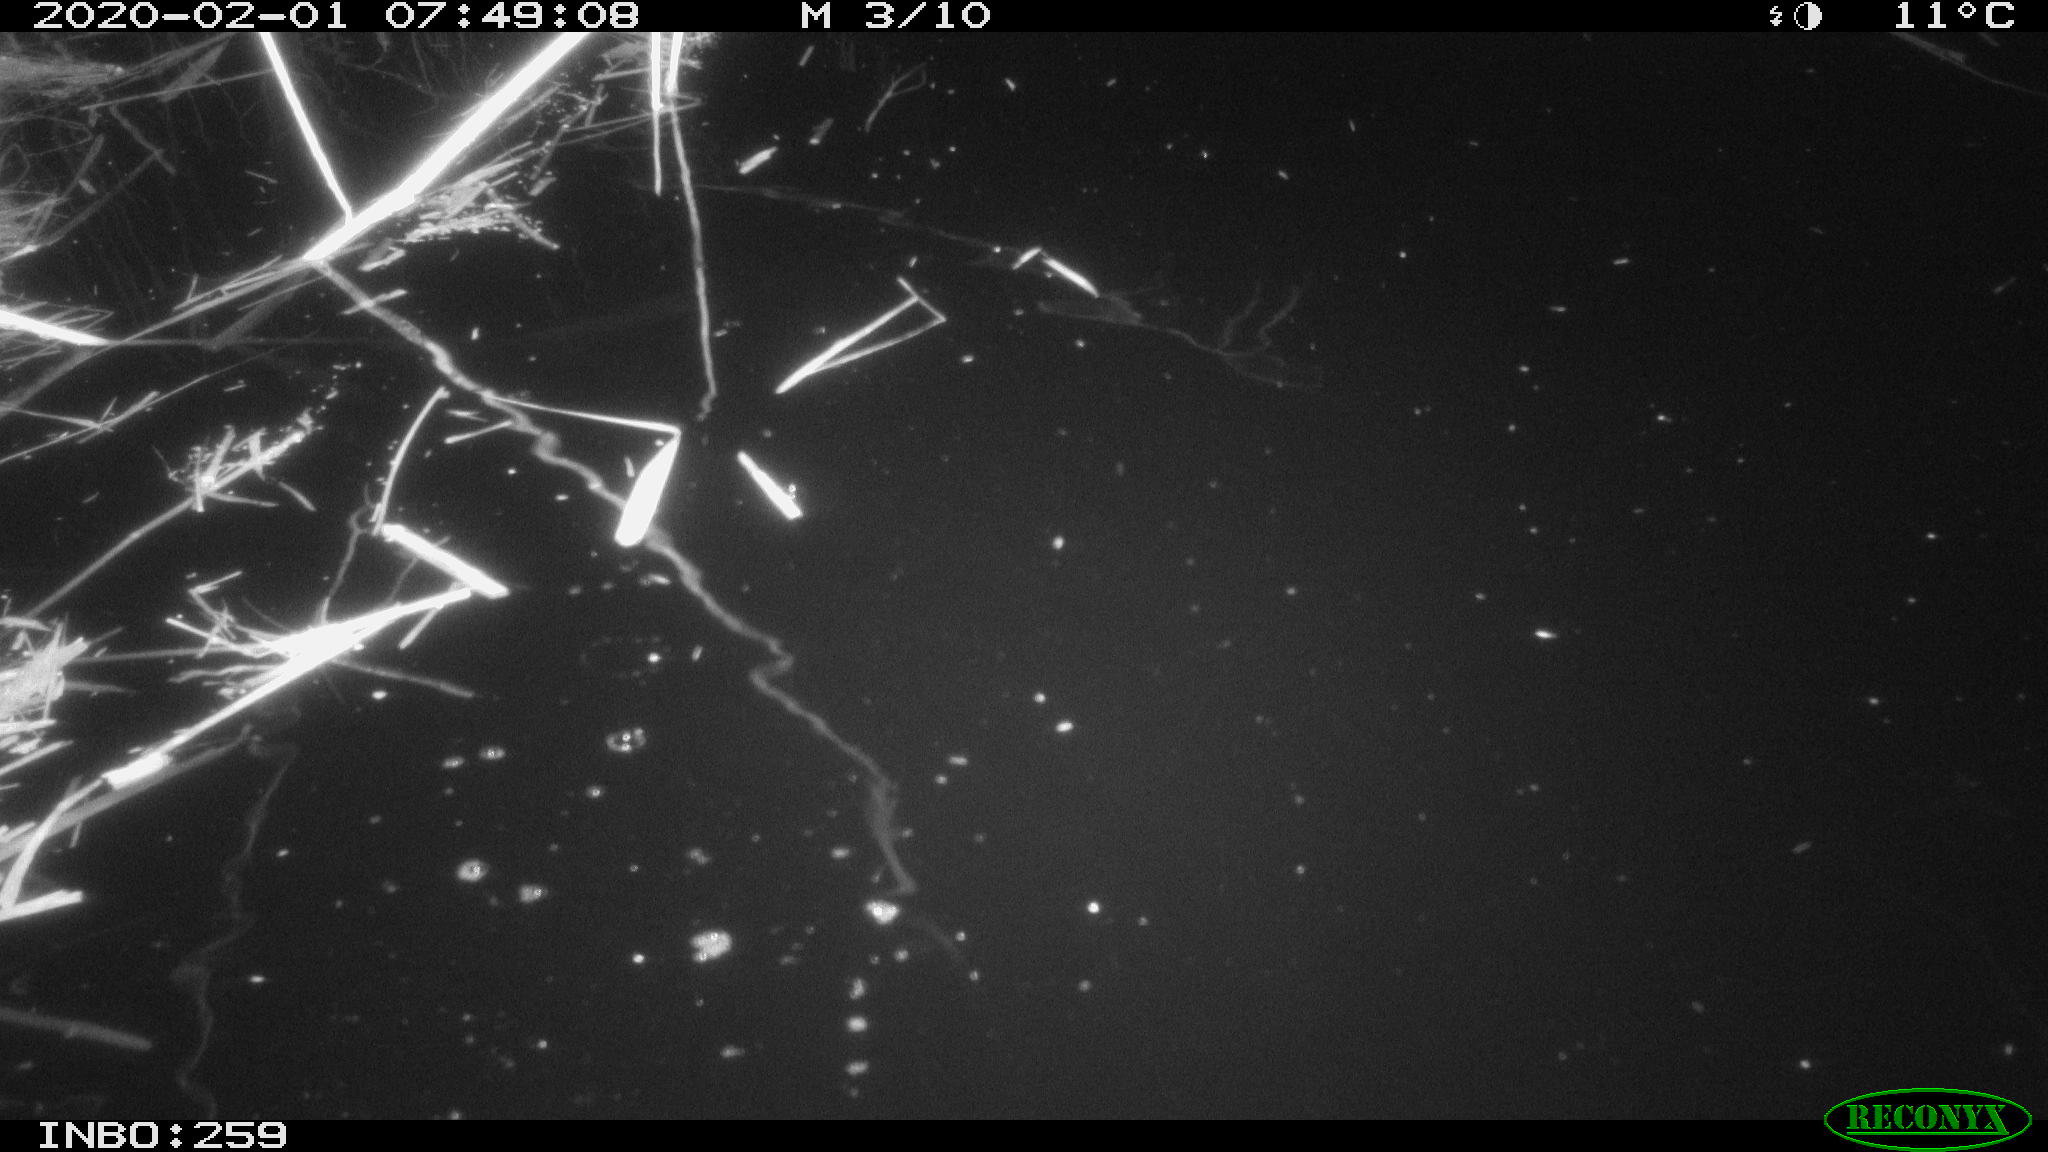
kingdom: Animalia
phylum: Chordata
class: Aves
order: Gruiformes
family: Rallidae
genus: Gallinula
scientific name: Gallinula chloropus
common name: Common moorhen
